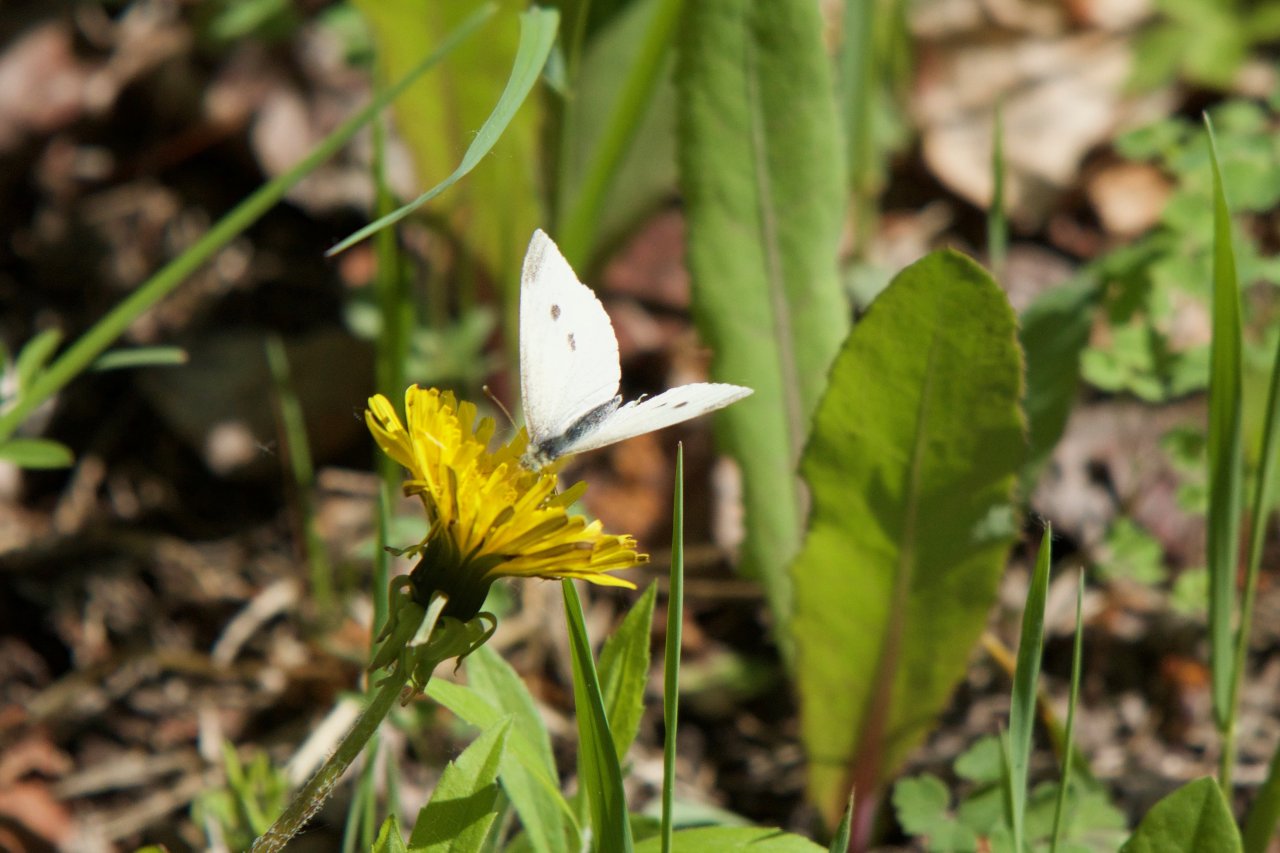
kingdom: Animalia
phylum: Arthropoda
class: Insecta
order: Lepidoptera
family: Pieridae
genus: Pieris
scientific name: Pieris rapae
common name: Cabbage White
